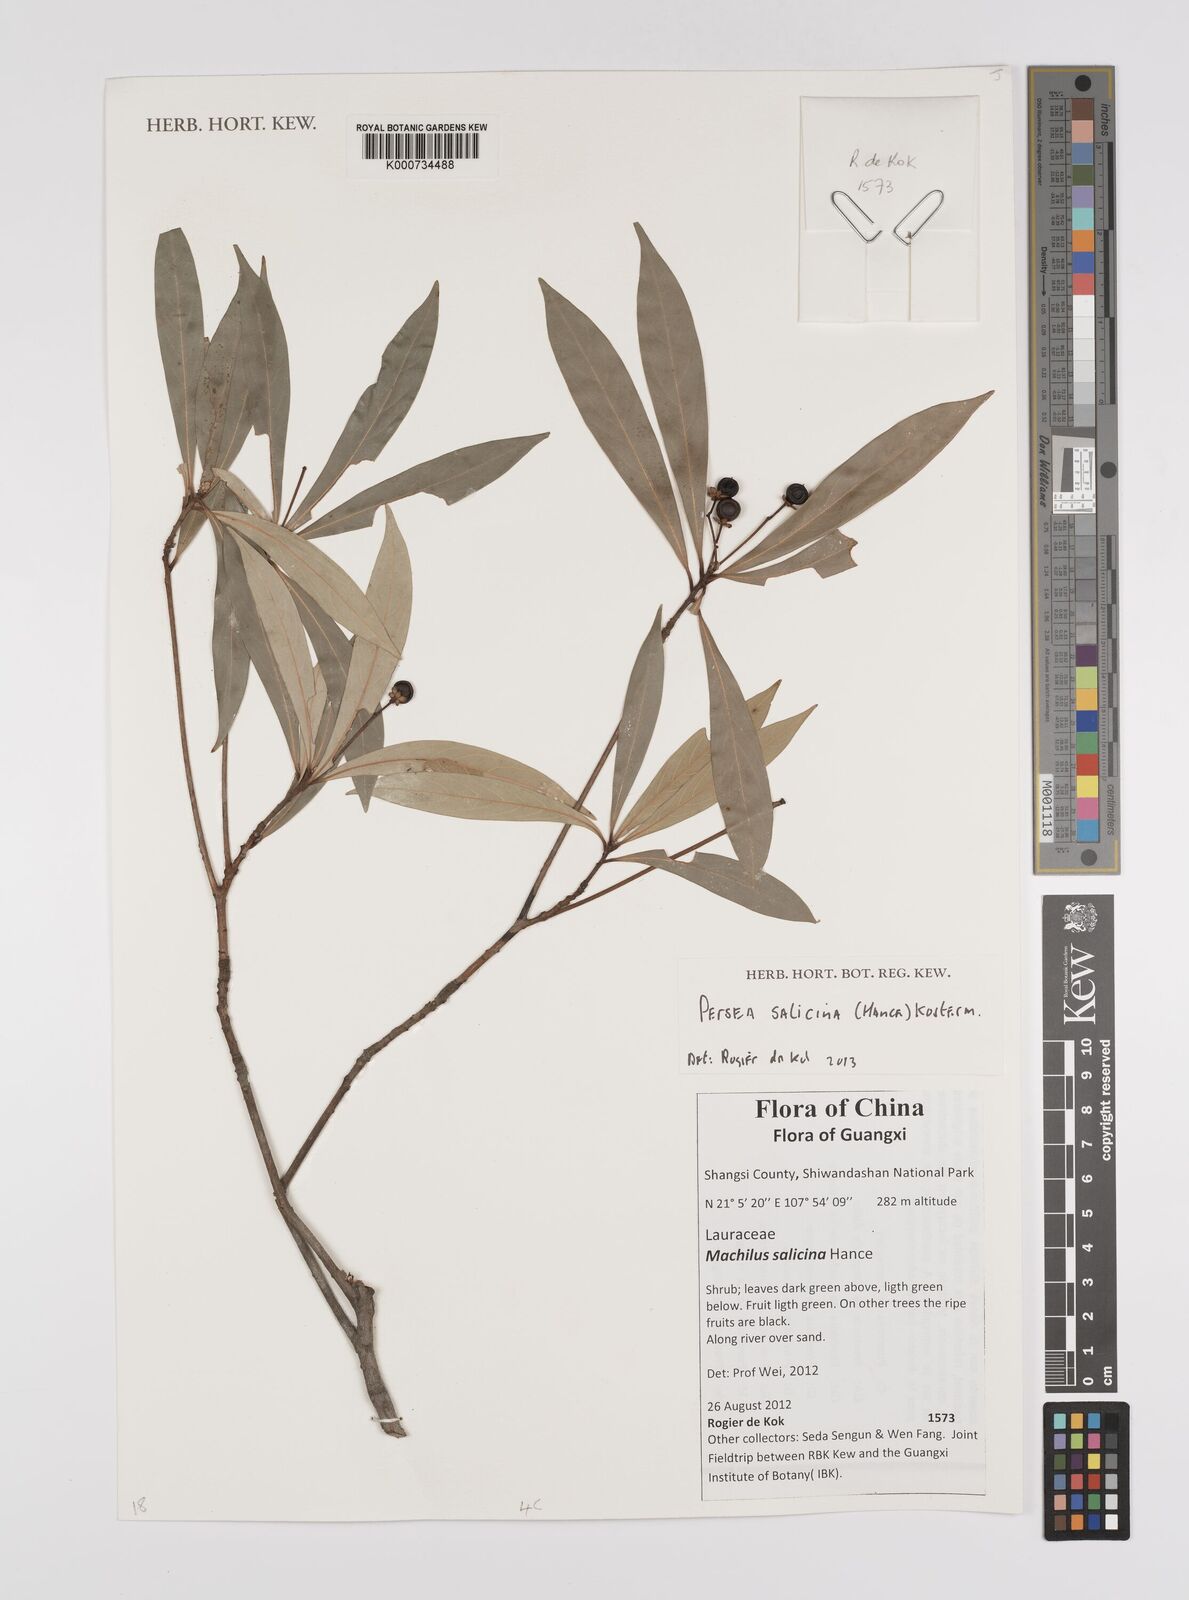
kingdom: Plantae
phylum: Tracheophyta
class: Magnoliopsida
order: Laurales
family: Lauraceae
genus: Machilus
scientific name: Machilus salicina
